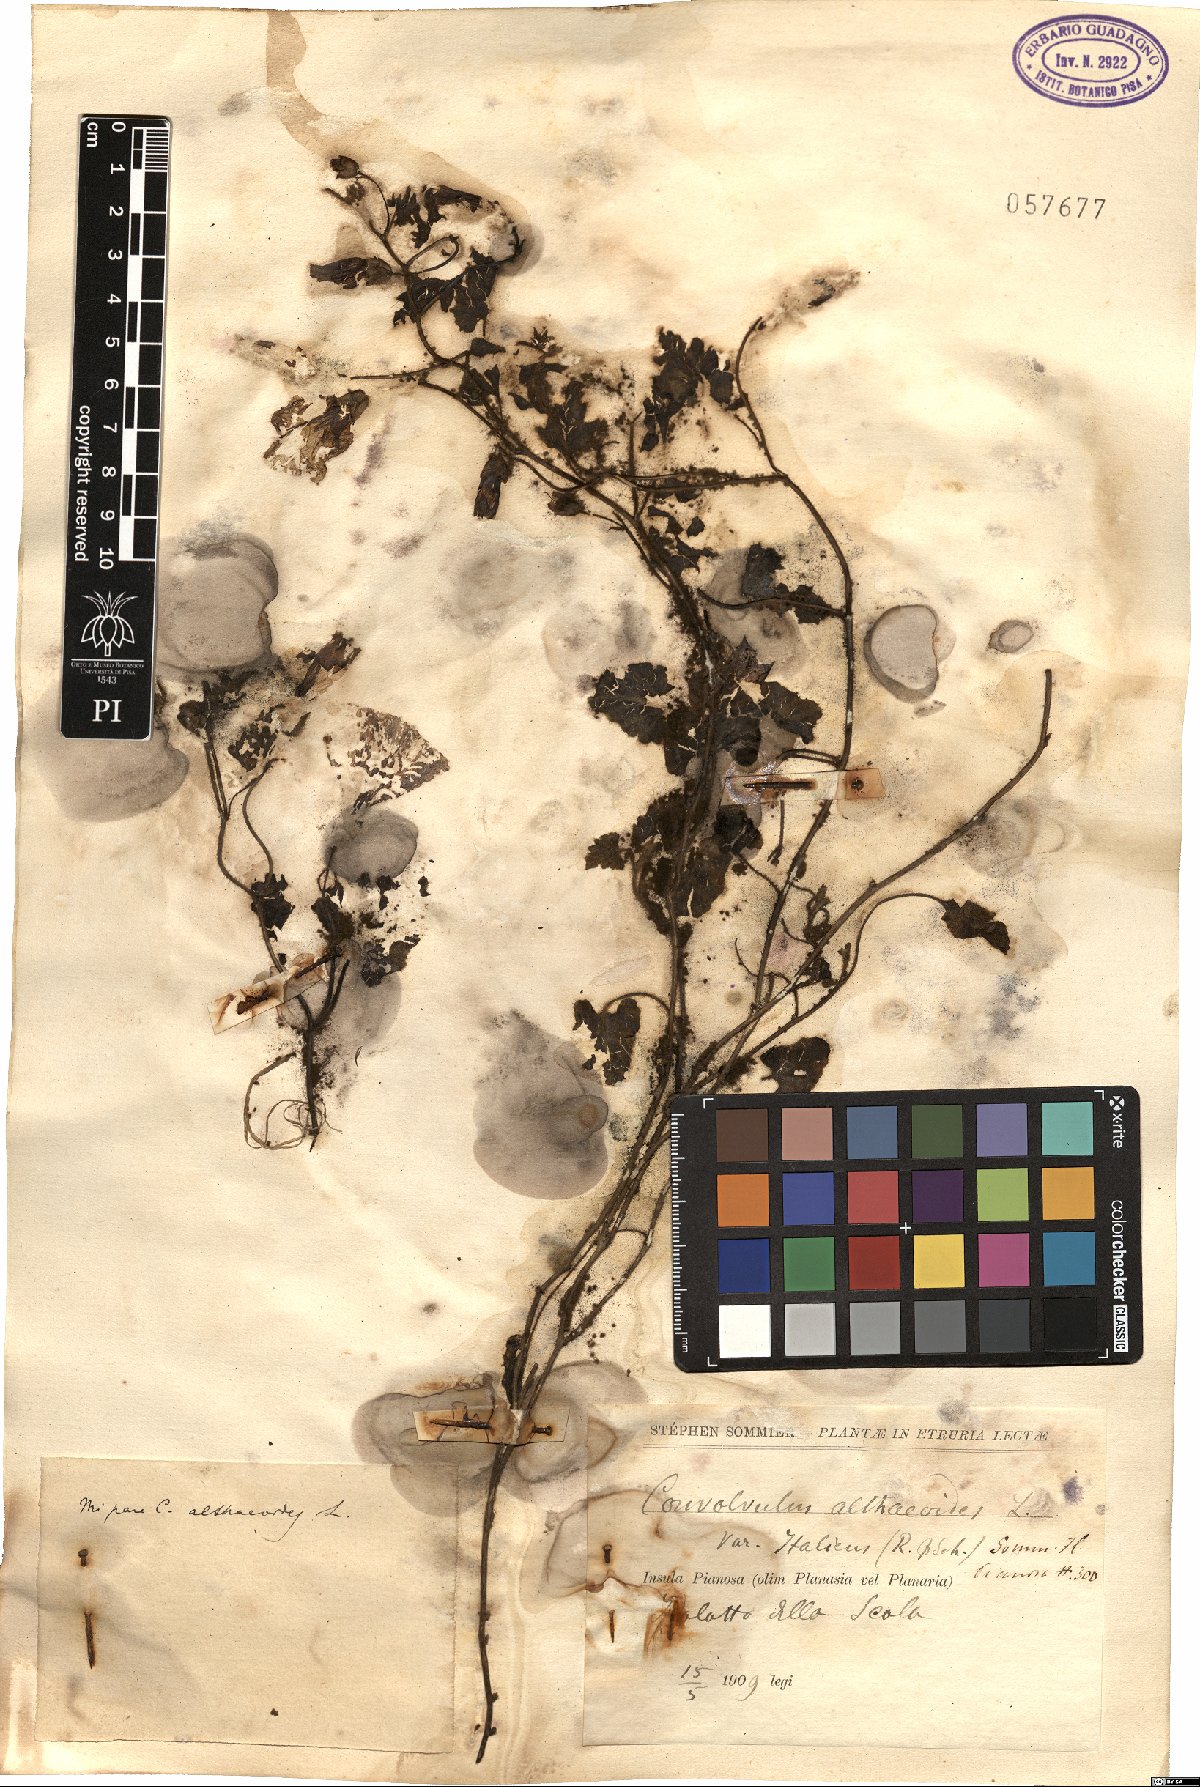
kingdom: Plantae
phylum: Tracheophyta
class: Magnoliopsida
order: Solanales
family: Convolvulaceae
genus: Convolvulus
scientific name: Convolvulus althaeoides
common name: Mallow bindweed
